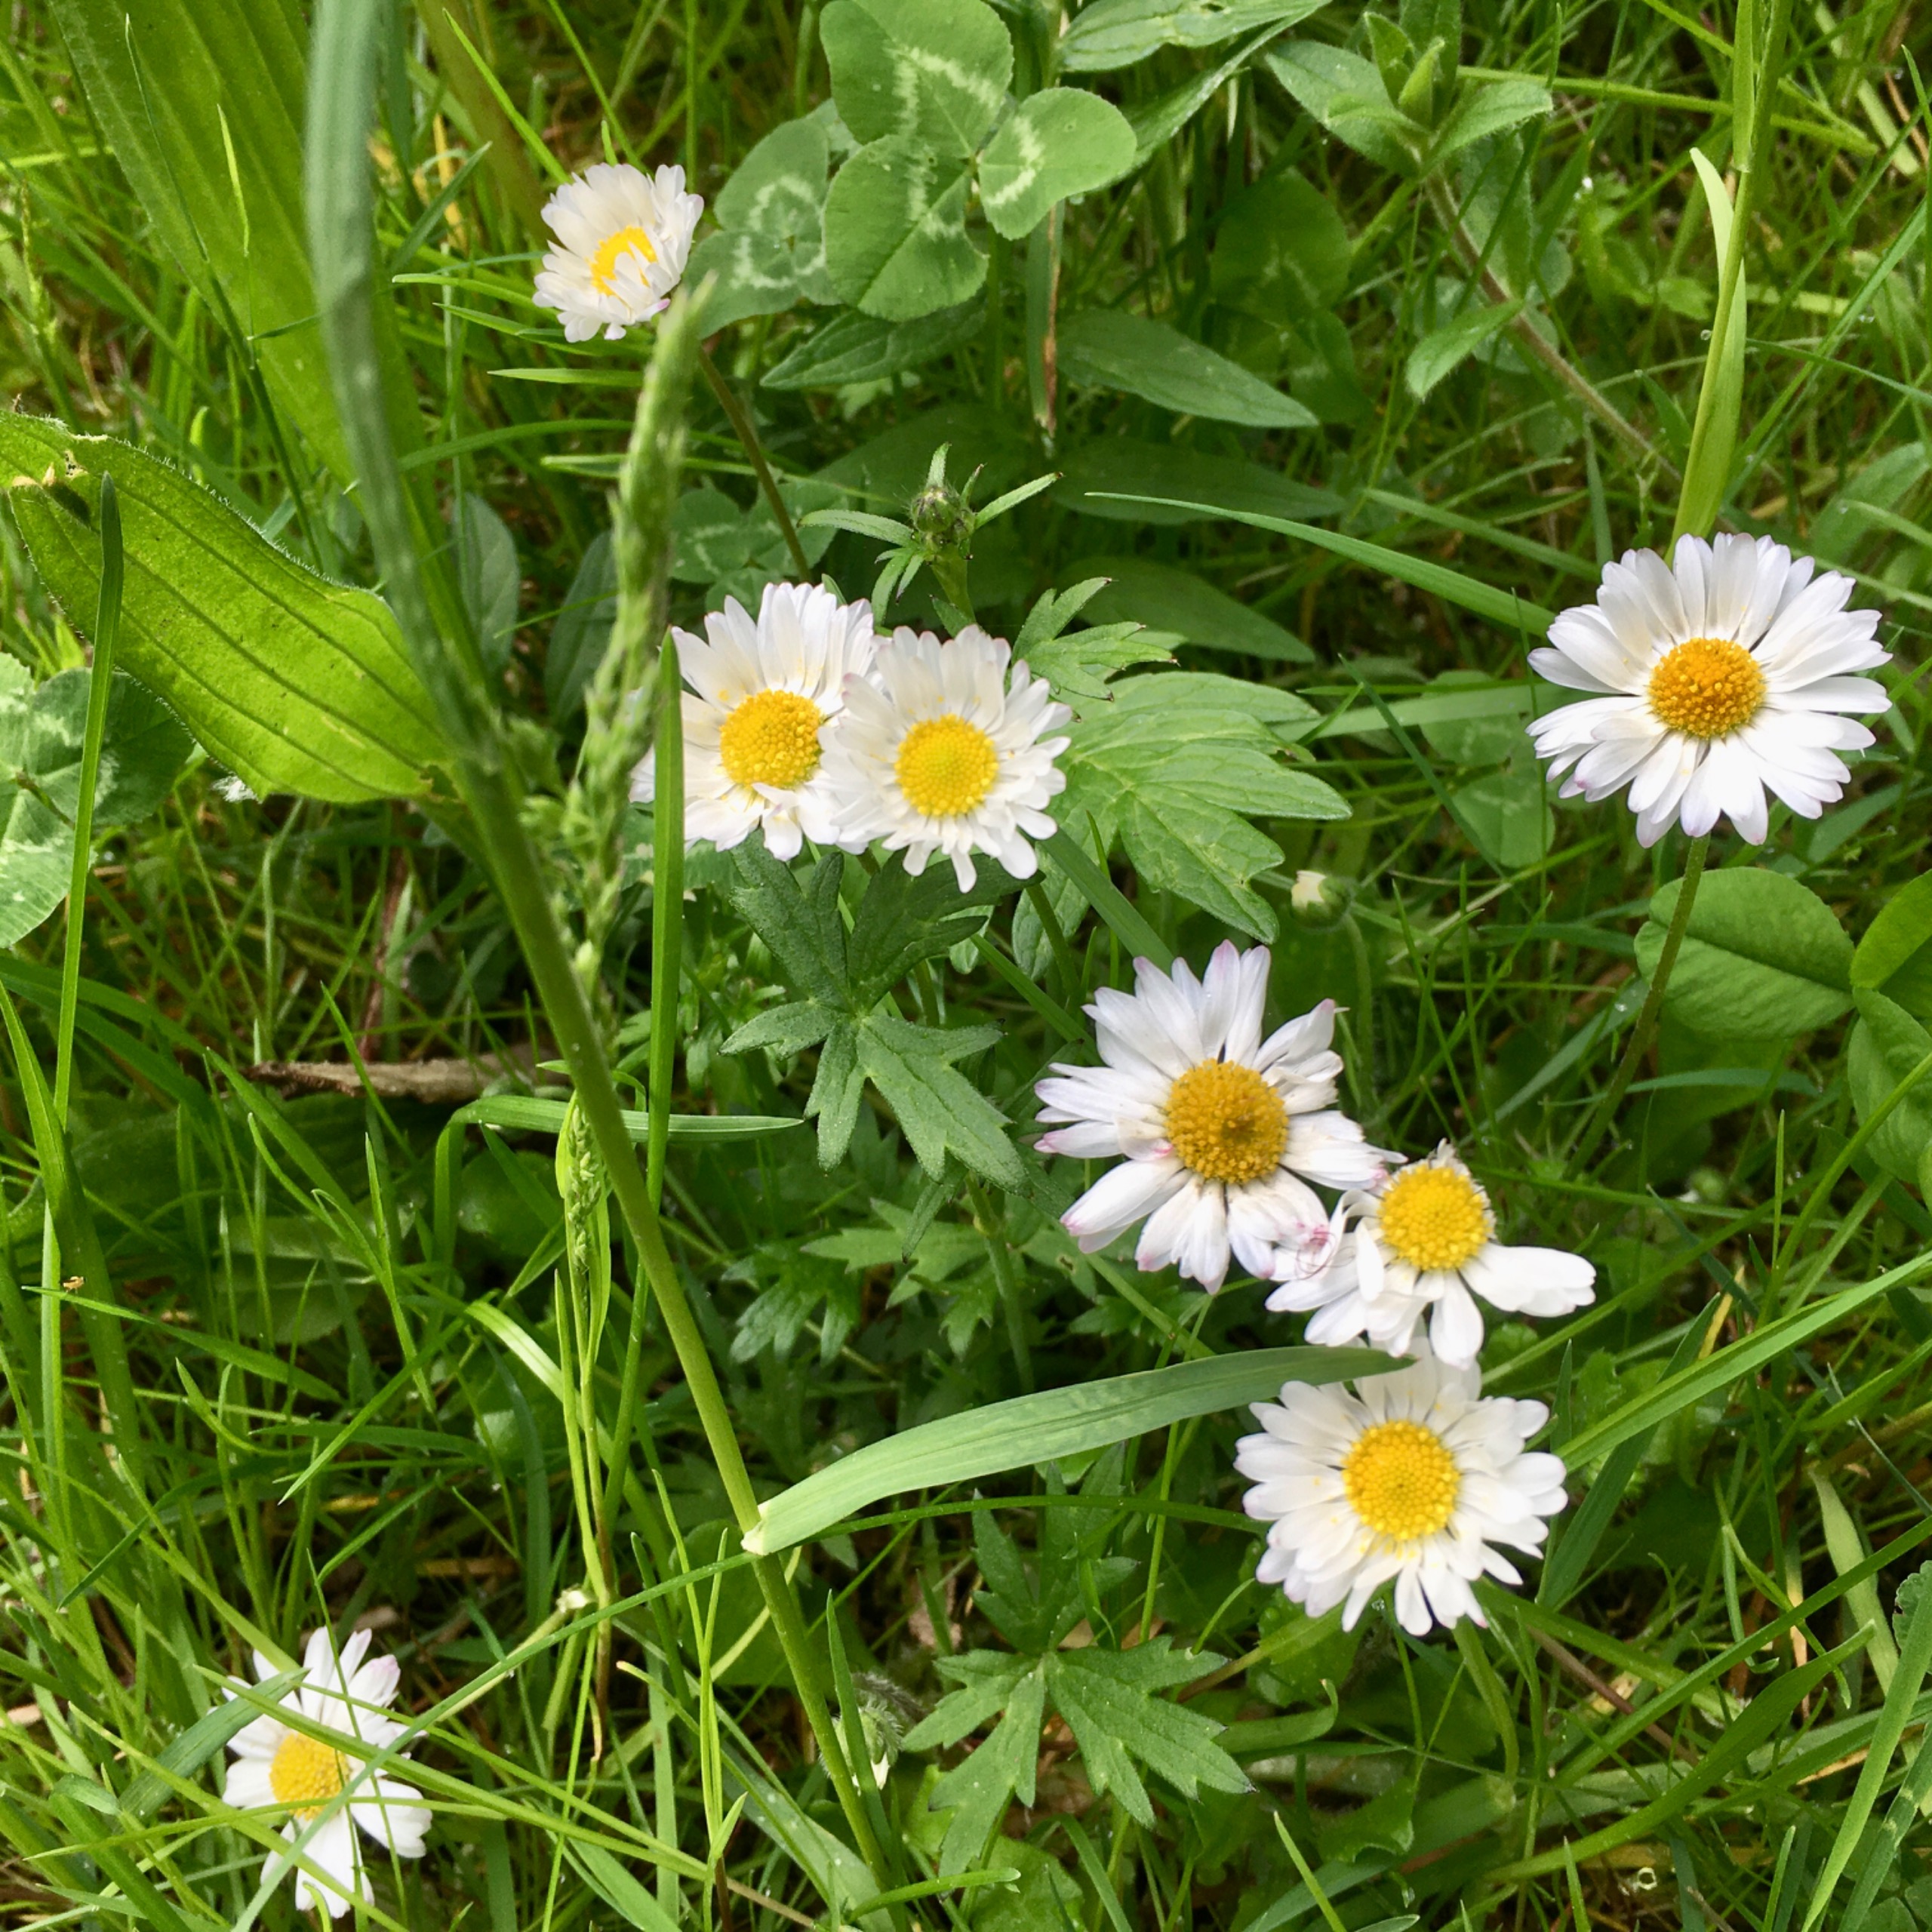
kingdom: Plantae
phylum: Tracheophyta
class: Magnoliopsida
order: Asterales
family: Asteraceae
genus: Bellis
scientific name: Bellis perennis
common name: Tusindfryd
